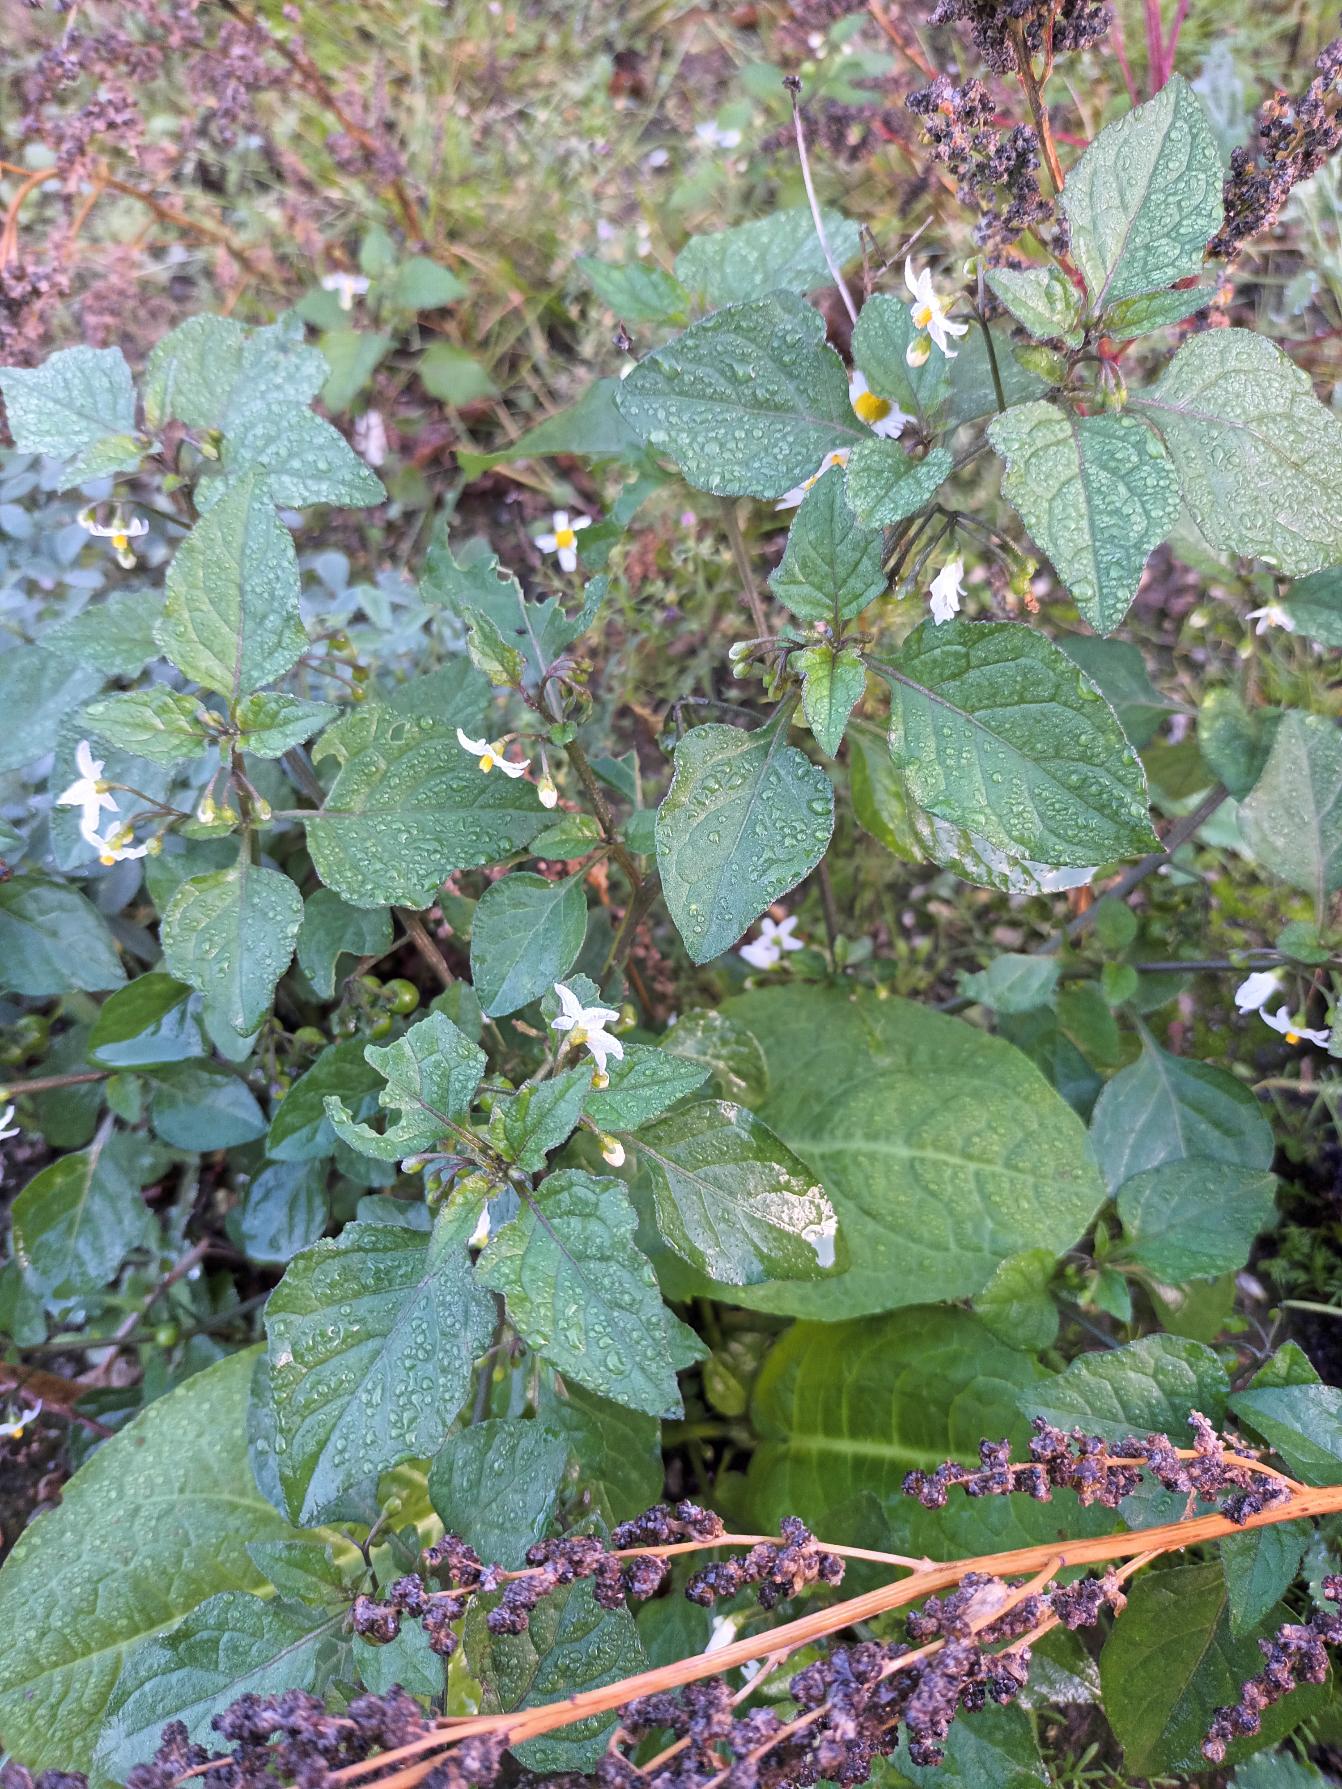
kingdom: Plantae
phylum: Tracheophyta
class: Magnoliopsida
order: Solanales
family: Solanaceae
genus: Solanum
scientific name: Solanum nigrum
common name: Sort natskygge
